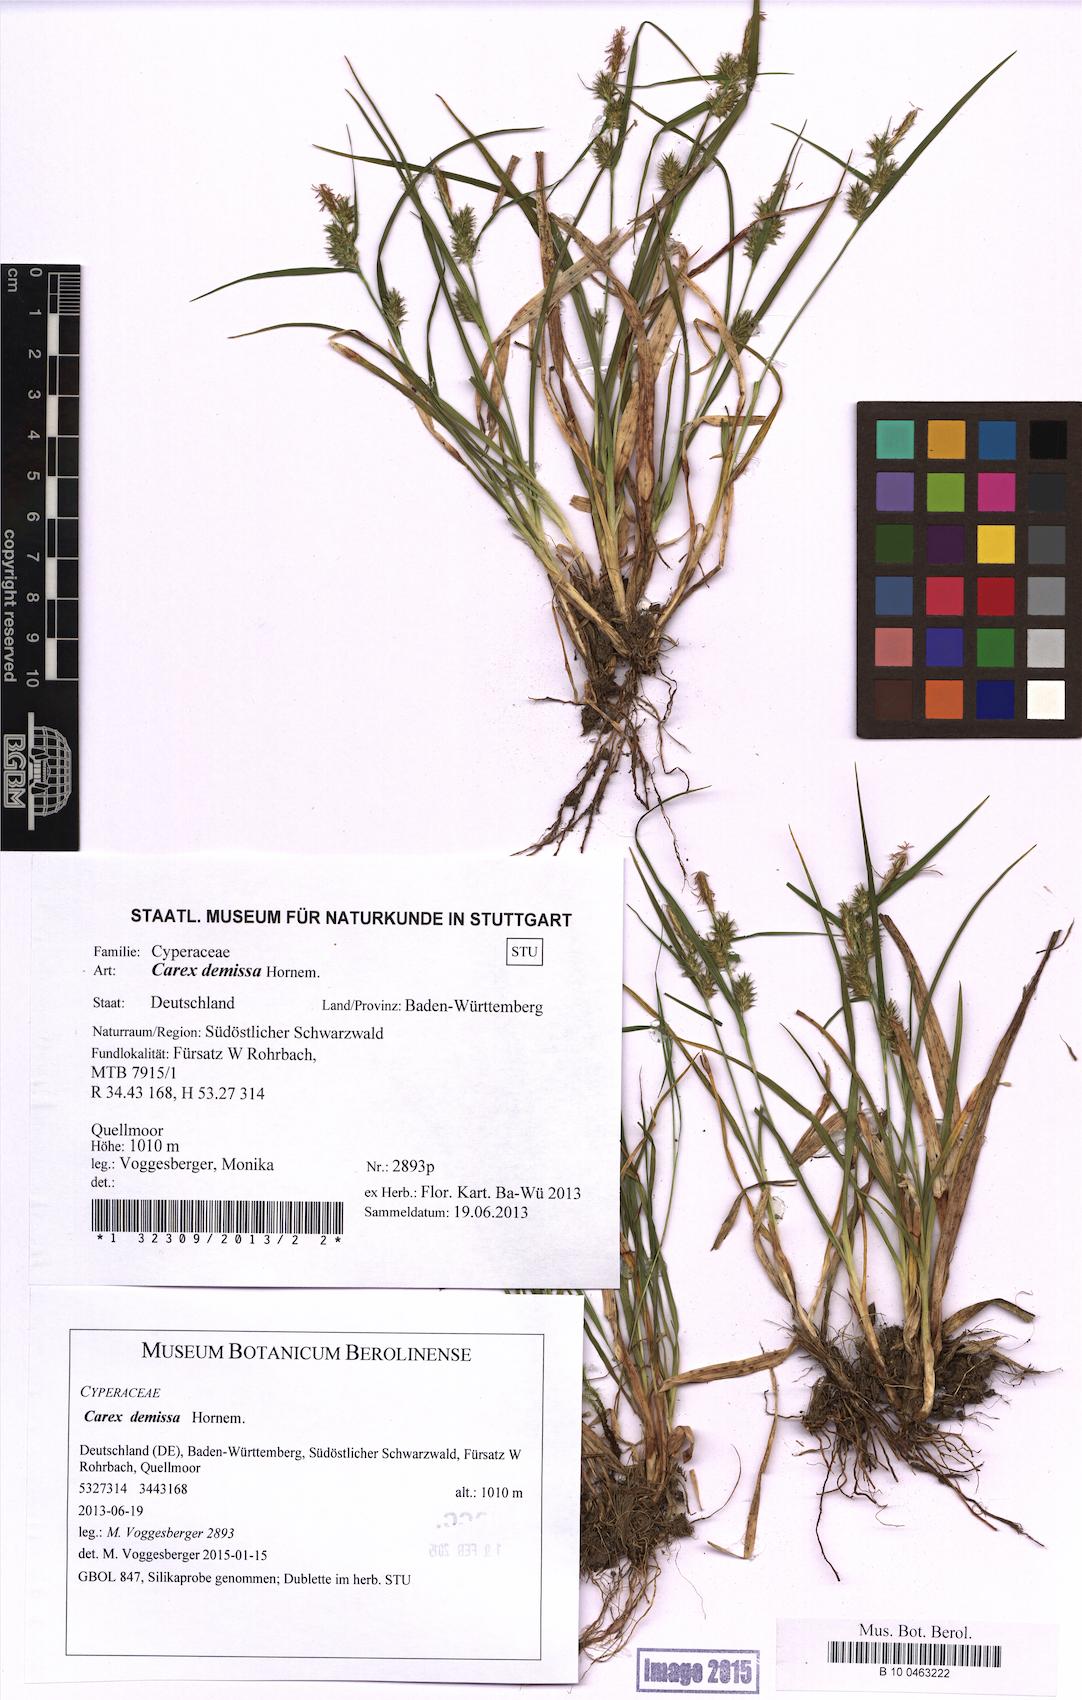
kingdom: Plantae
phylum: Tracheophyta
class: Liliopsida
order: Poales
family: Cyperaceae
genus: Carex
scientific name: Carex demissa
